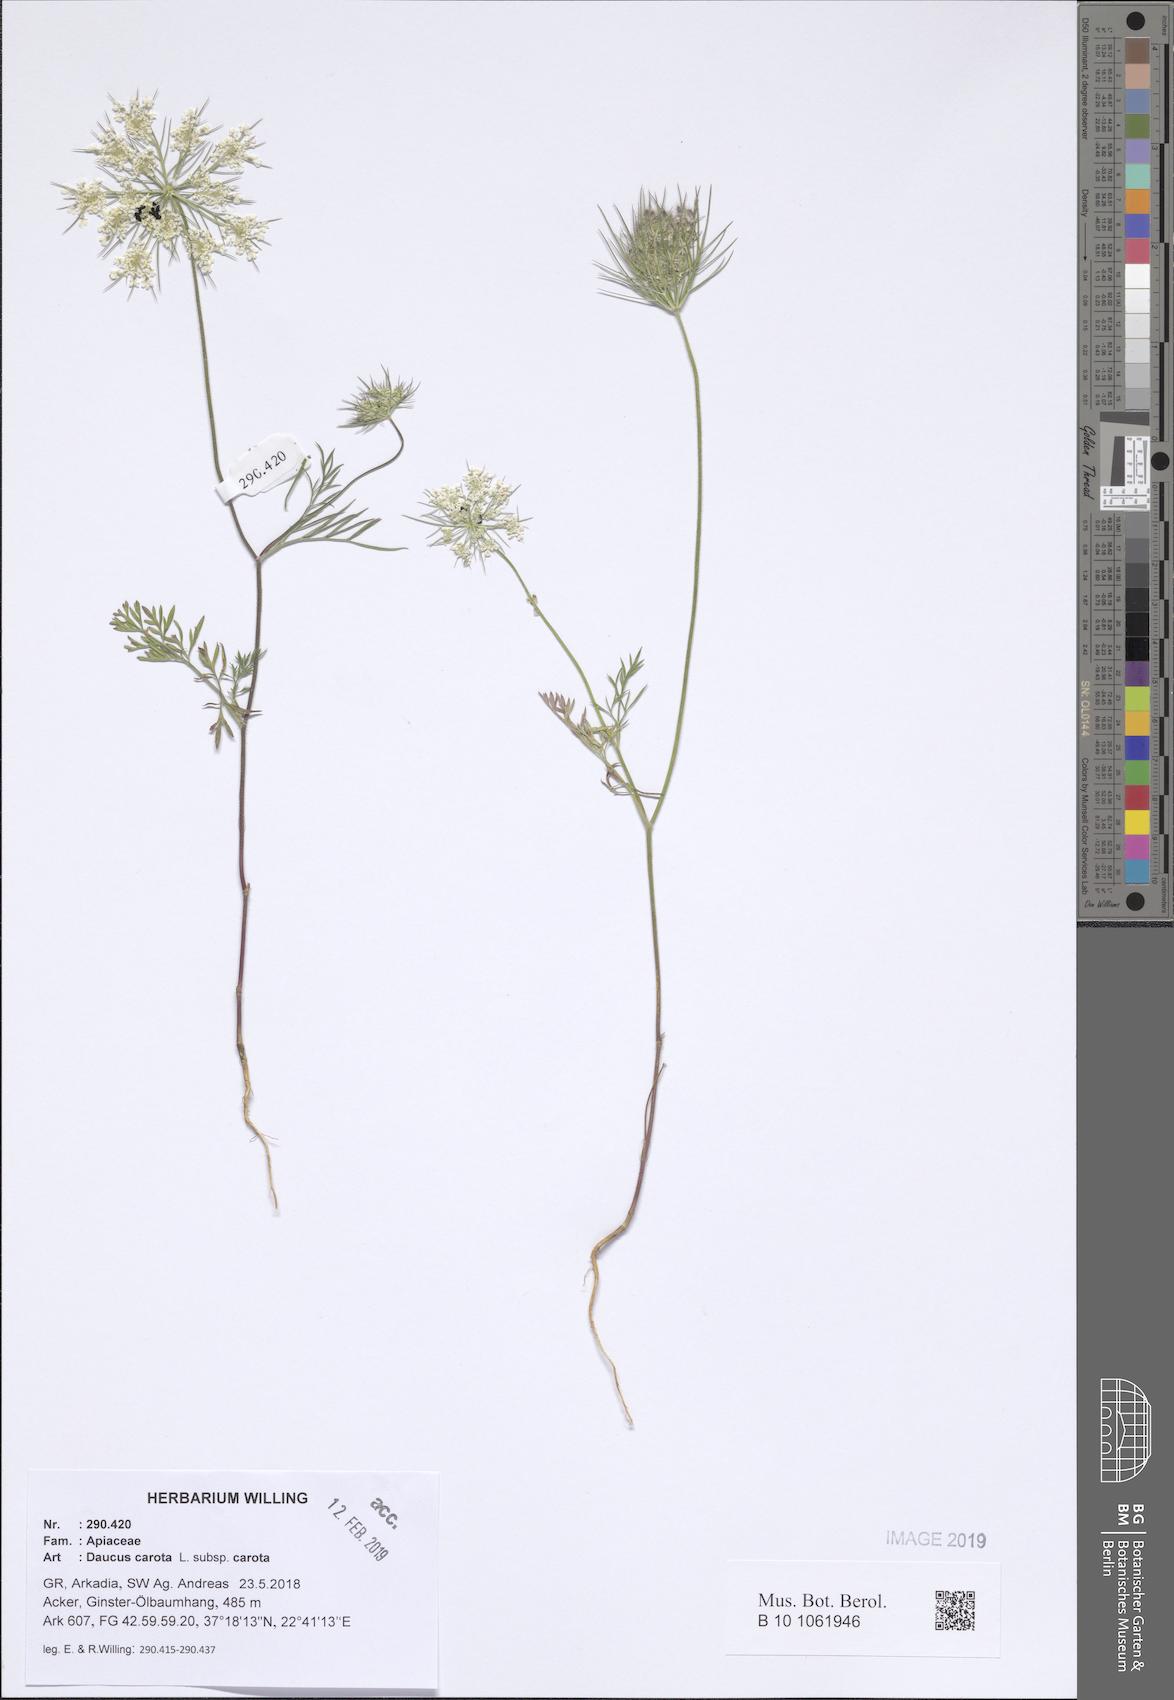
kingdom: Plantae
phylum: Tracheophyta
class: Magnoliopsida
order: Apiales
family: Apiaceae
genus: Daucus
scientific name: Daucus carota
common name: Wild carrot
